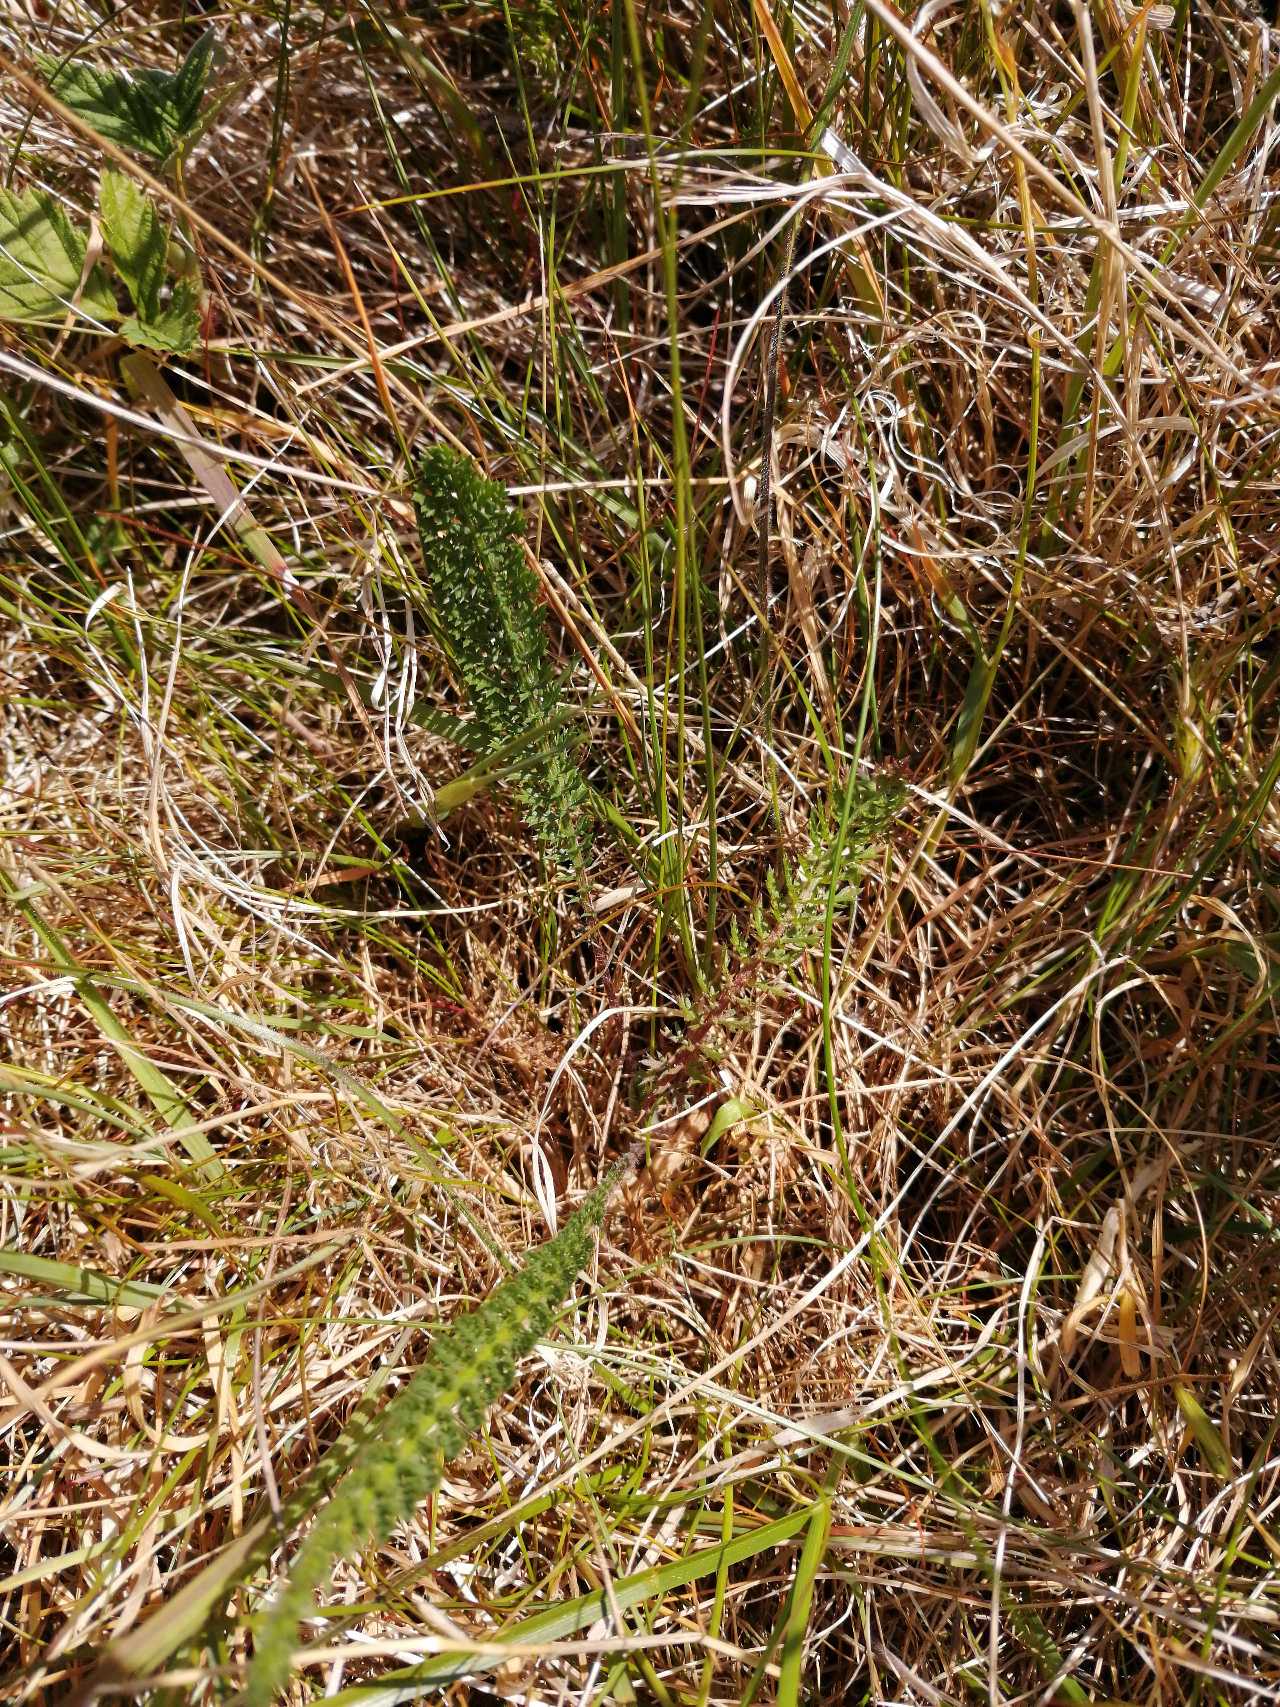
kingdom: Plantae
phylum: Tracheophyta
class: Magnoliopsida
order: Asterales
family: Asteraceae
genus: Achillea
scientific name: Achillea millefolium
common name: Almindelig røllike
